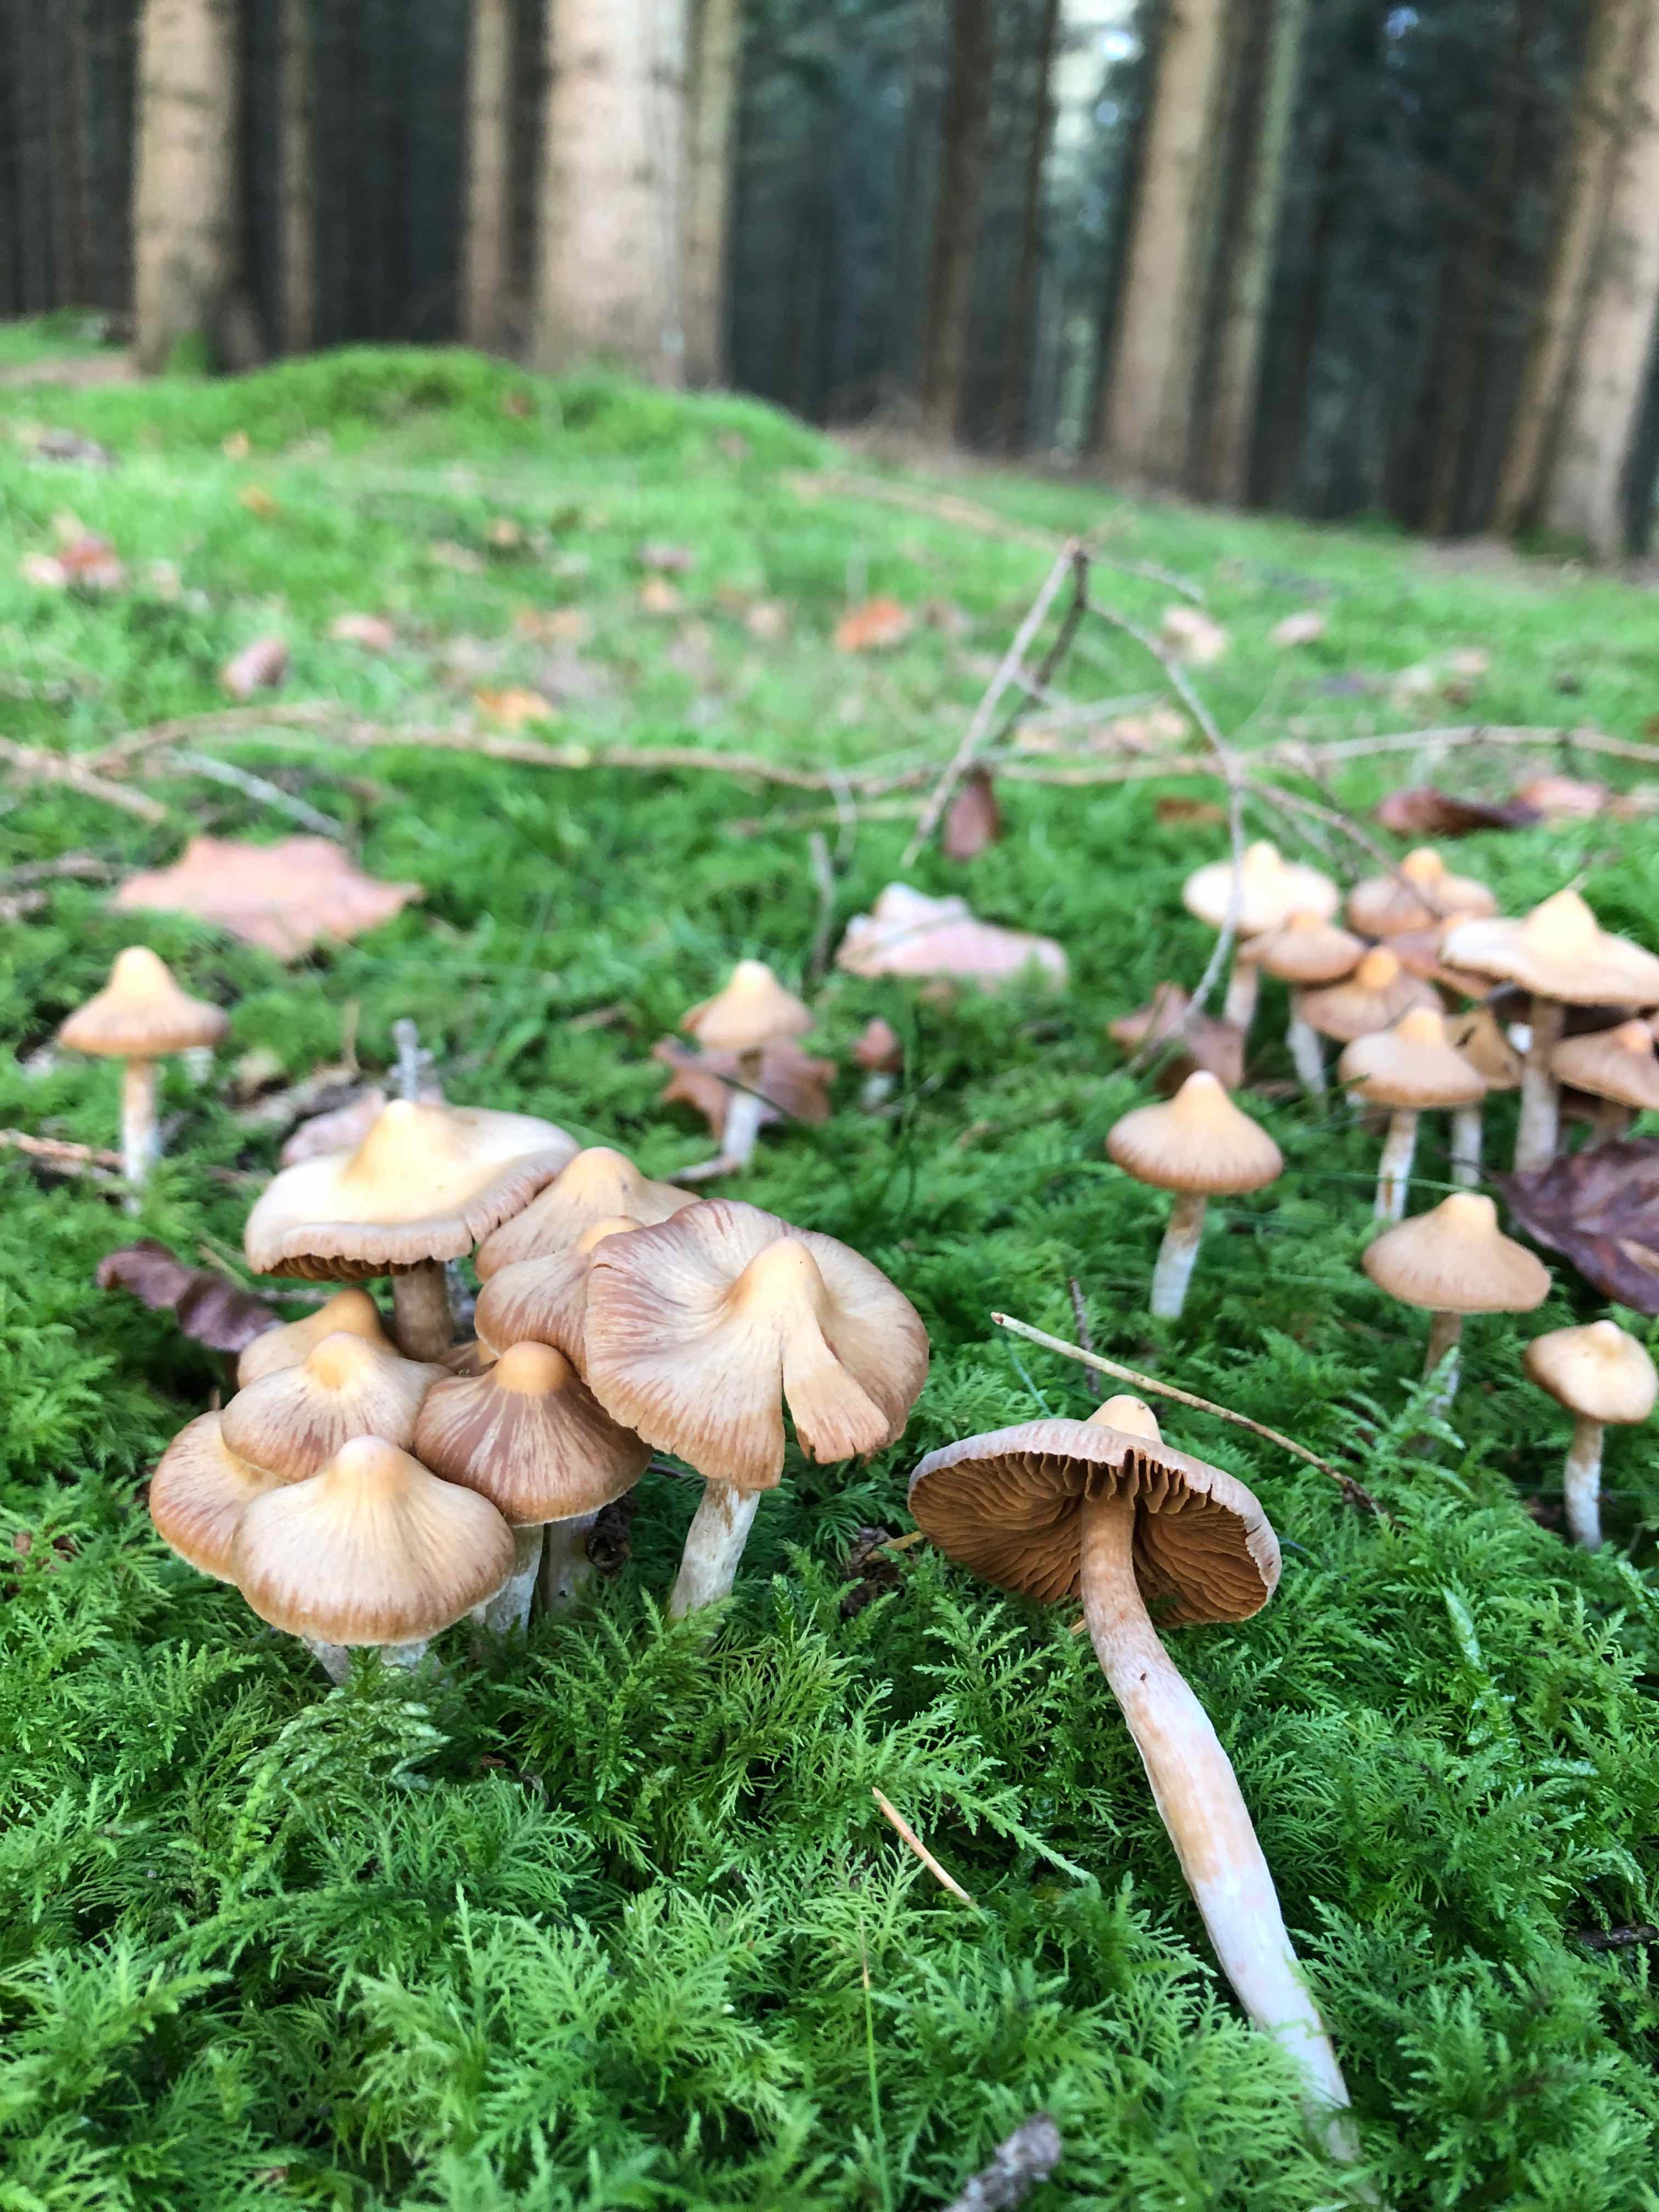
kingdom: Fungi
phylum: Basidiomycota
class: Agaricomycetes
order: Agaricales
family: Cortinariaceae
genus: Cortinarius
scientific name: Cortinarius
